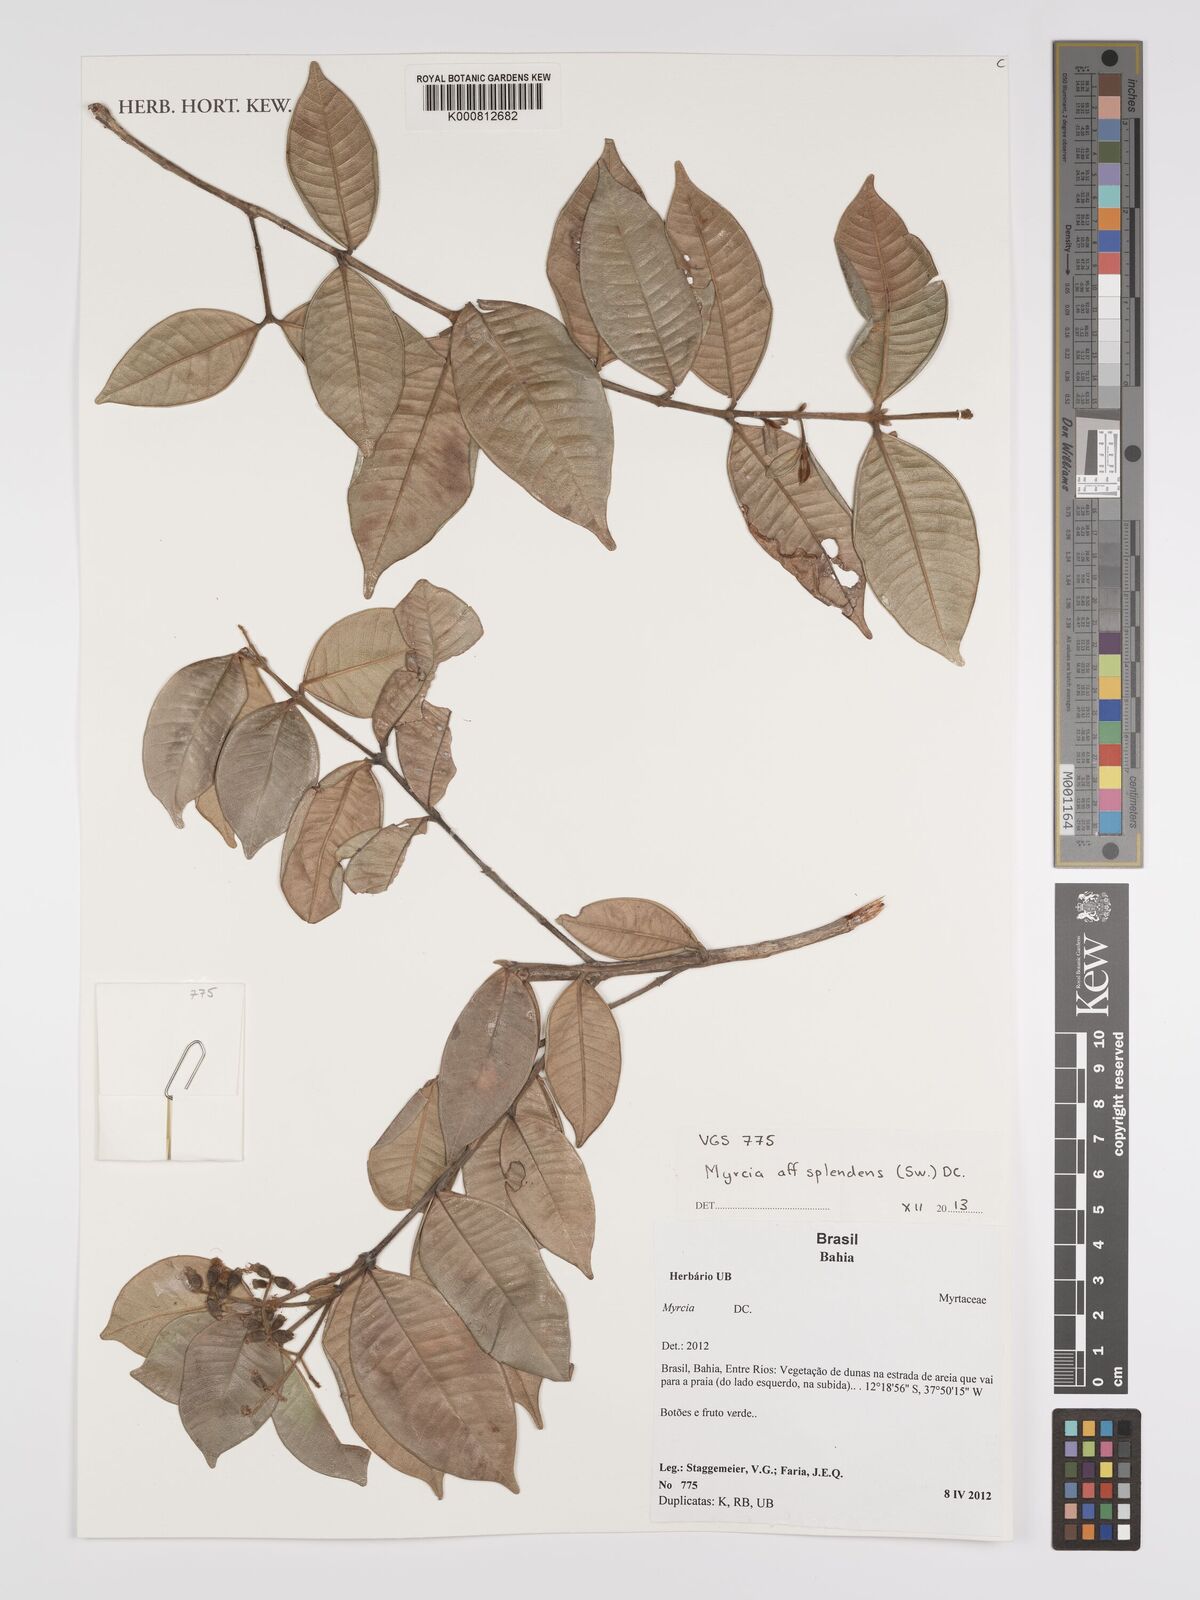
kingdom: Plantae
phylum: Tracheophyta
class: Magnoliopsida
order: Myrtales
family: Myrtaceae
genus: Myrcia
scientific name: Myrcia splendens
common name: Surinam cherry
